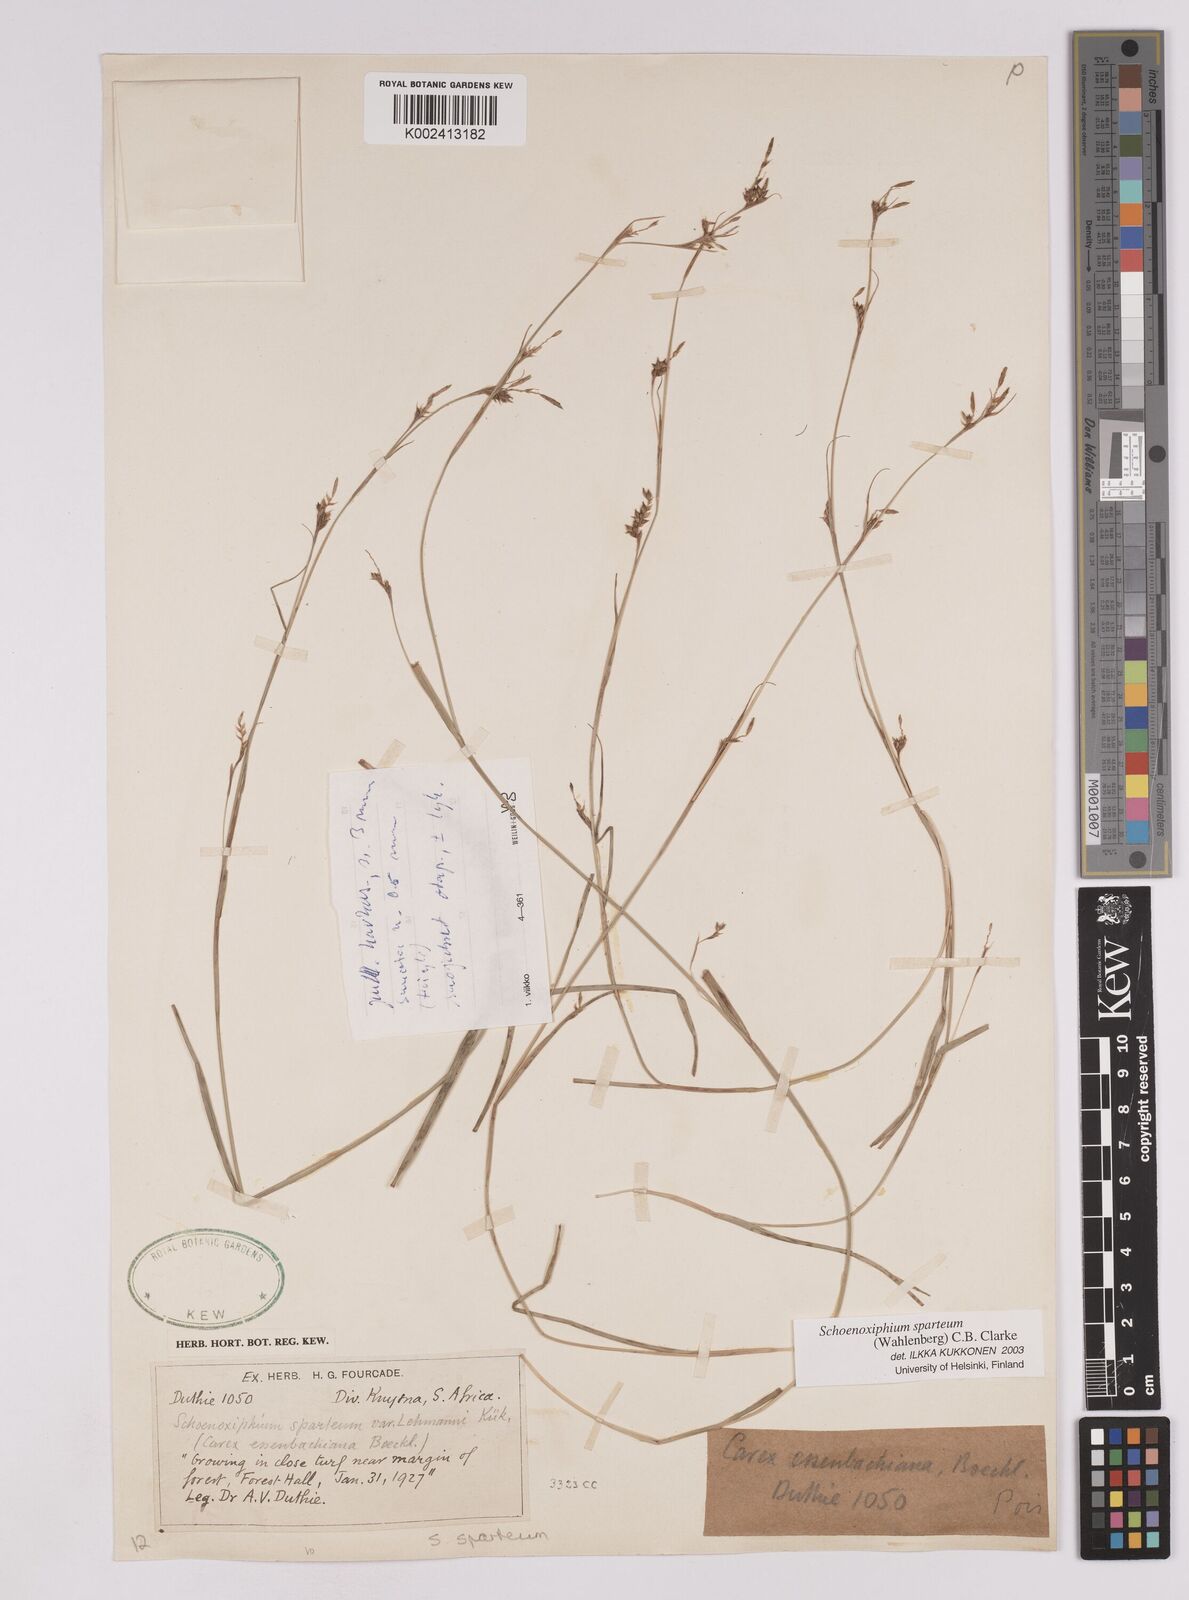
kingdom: Plantae
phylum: Tracheophyta
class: Liliopsida
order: Poales
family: Cyperaceae
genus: Carex
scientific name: Carex spartea
